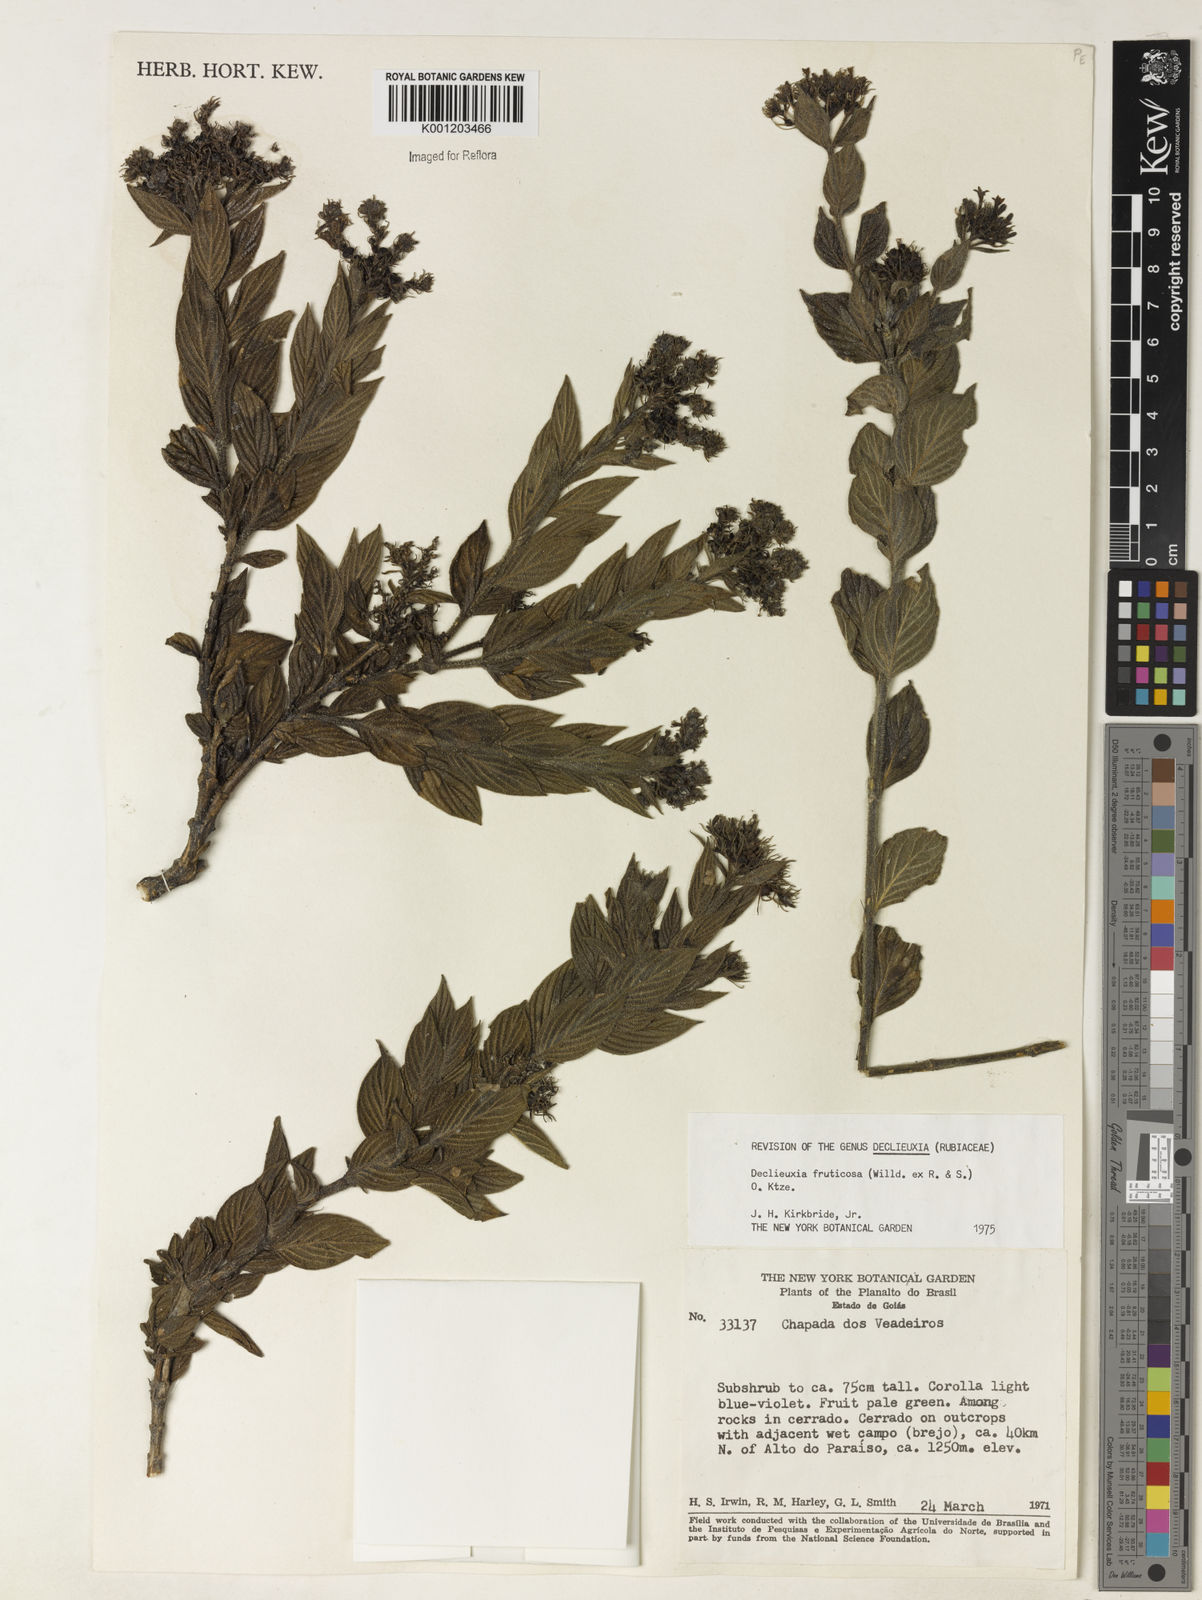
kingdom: Plantae
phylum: Tracheophyta
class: Magnoliopsida
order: Gentianales
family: Rubiaceae
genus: Declieuxia
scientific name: Declieuxia fruticosa
